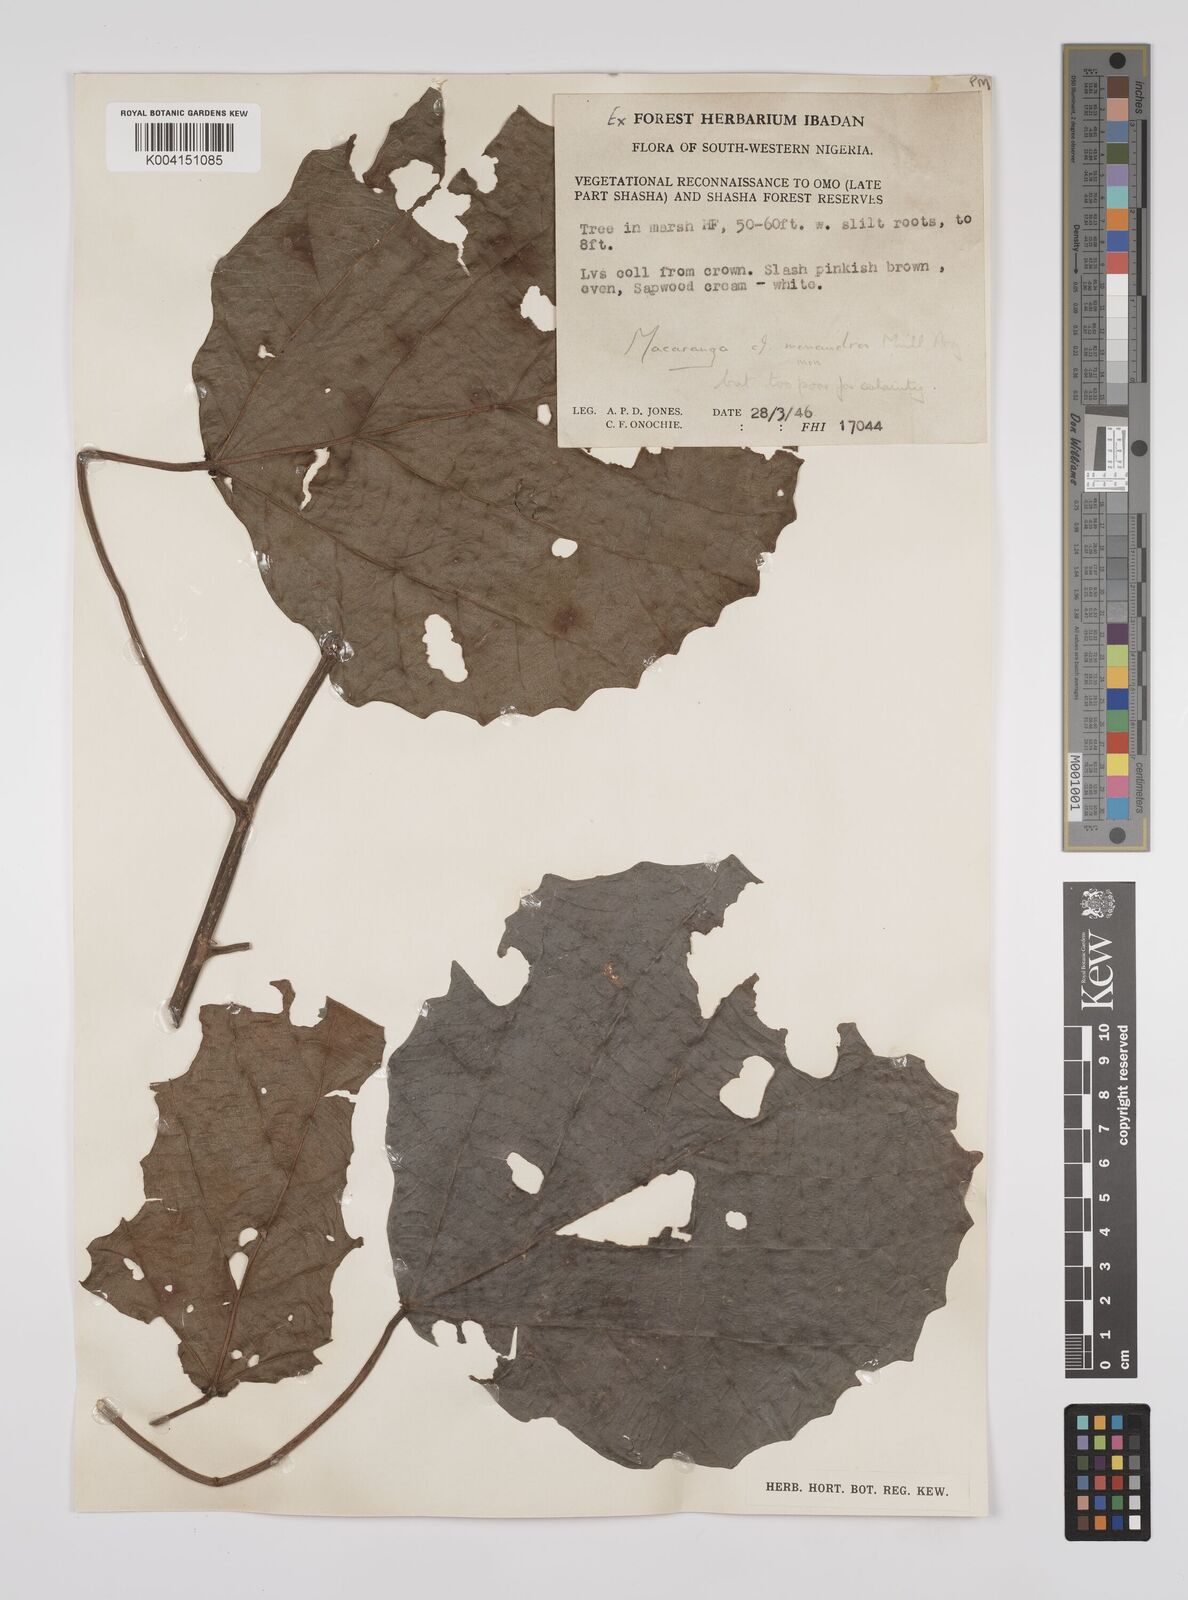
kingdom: Plantae
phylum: Tracheophyta
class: Magnoliopsida
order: Malpighiales
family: Euphorbiaceae
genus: Macaranga
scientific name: Macaranga monandra
